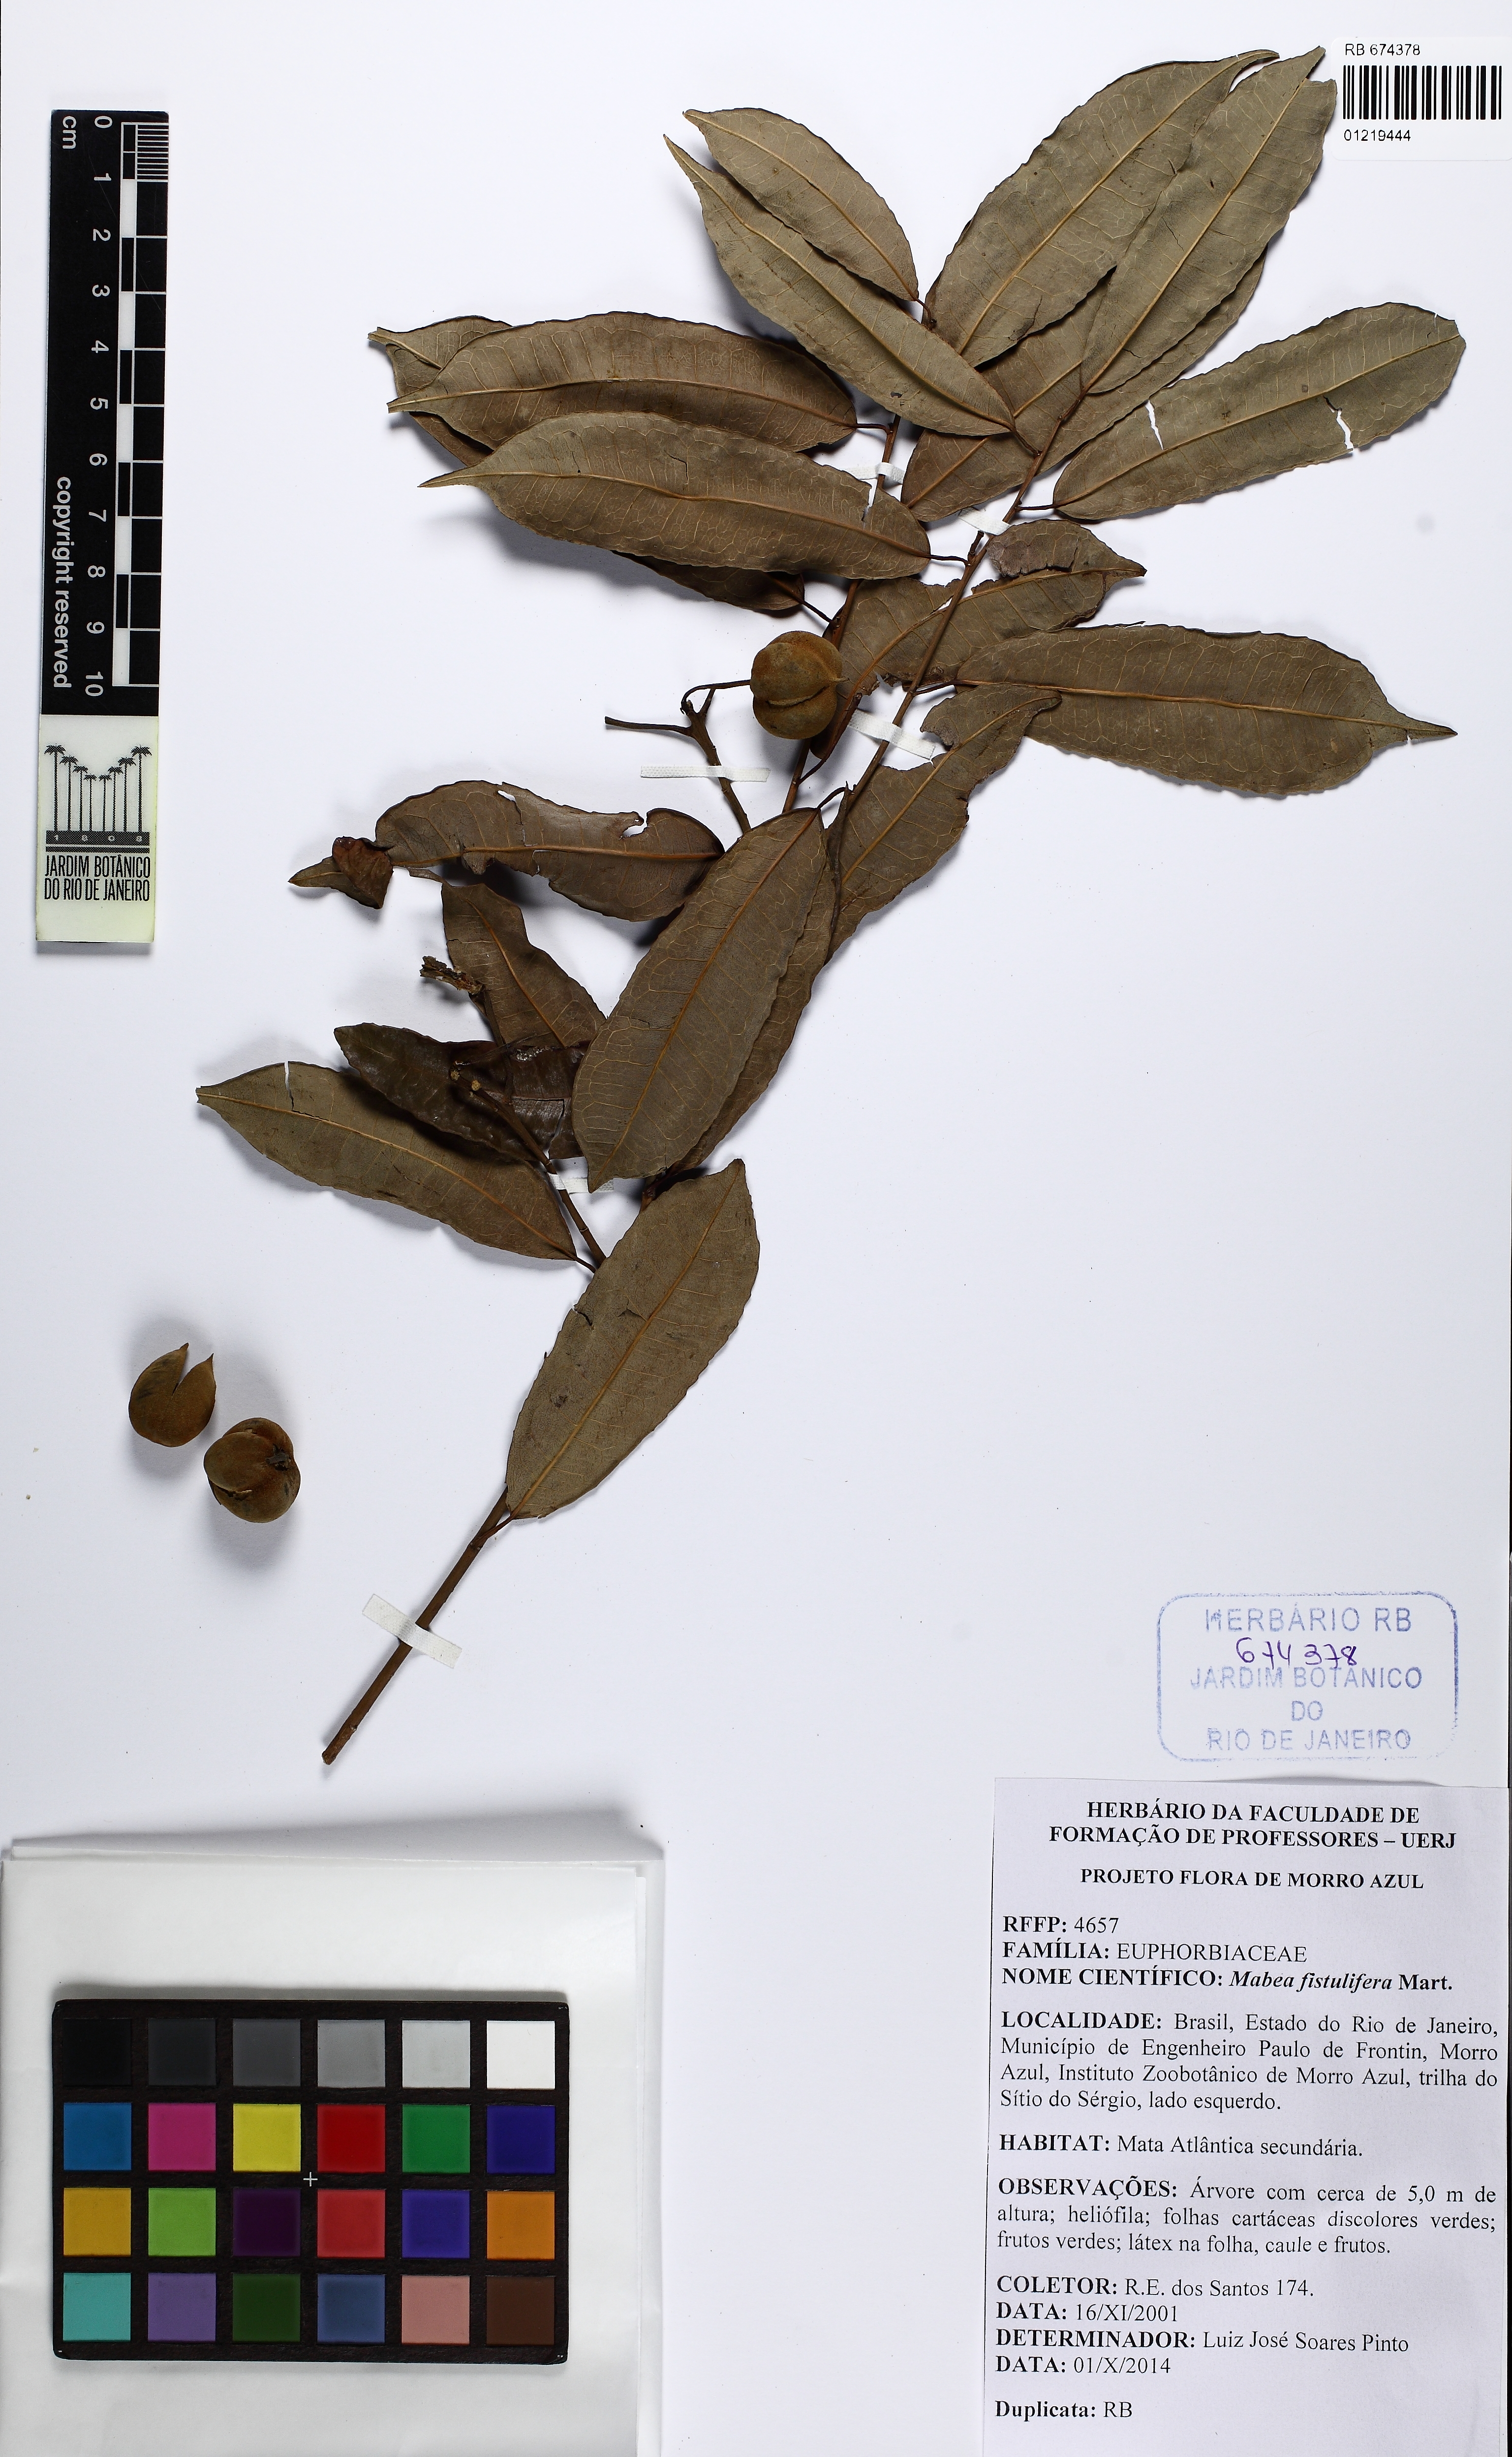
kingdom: Plantae
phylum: Tracheophyta
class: Magnoliopsida
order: Malpighiales
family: Euphorbiaceae
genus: Mabea
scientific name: Mabea fistulifera
